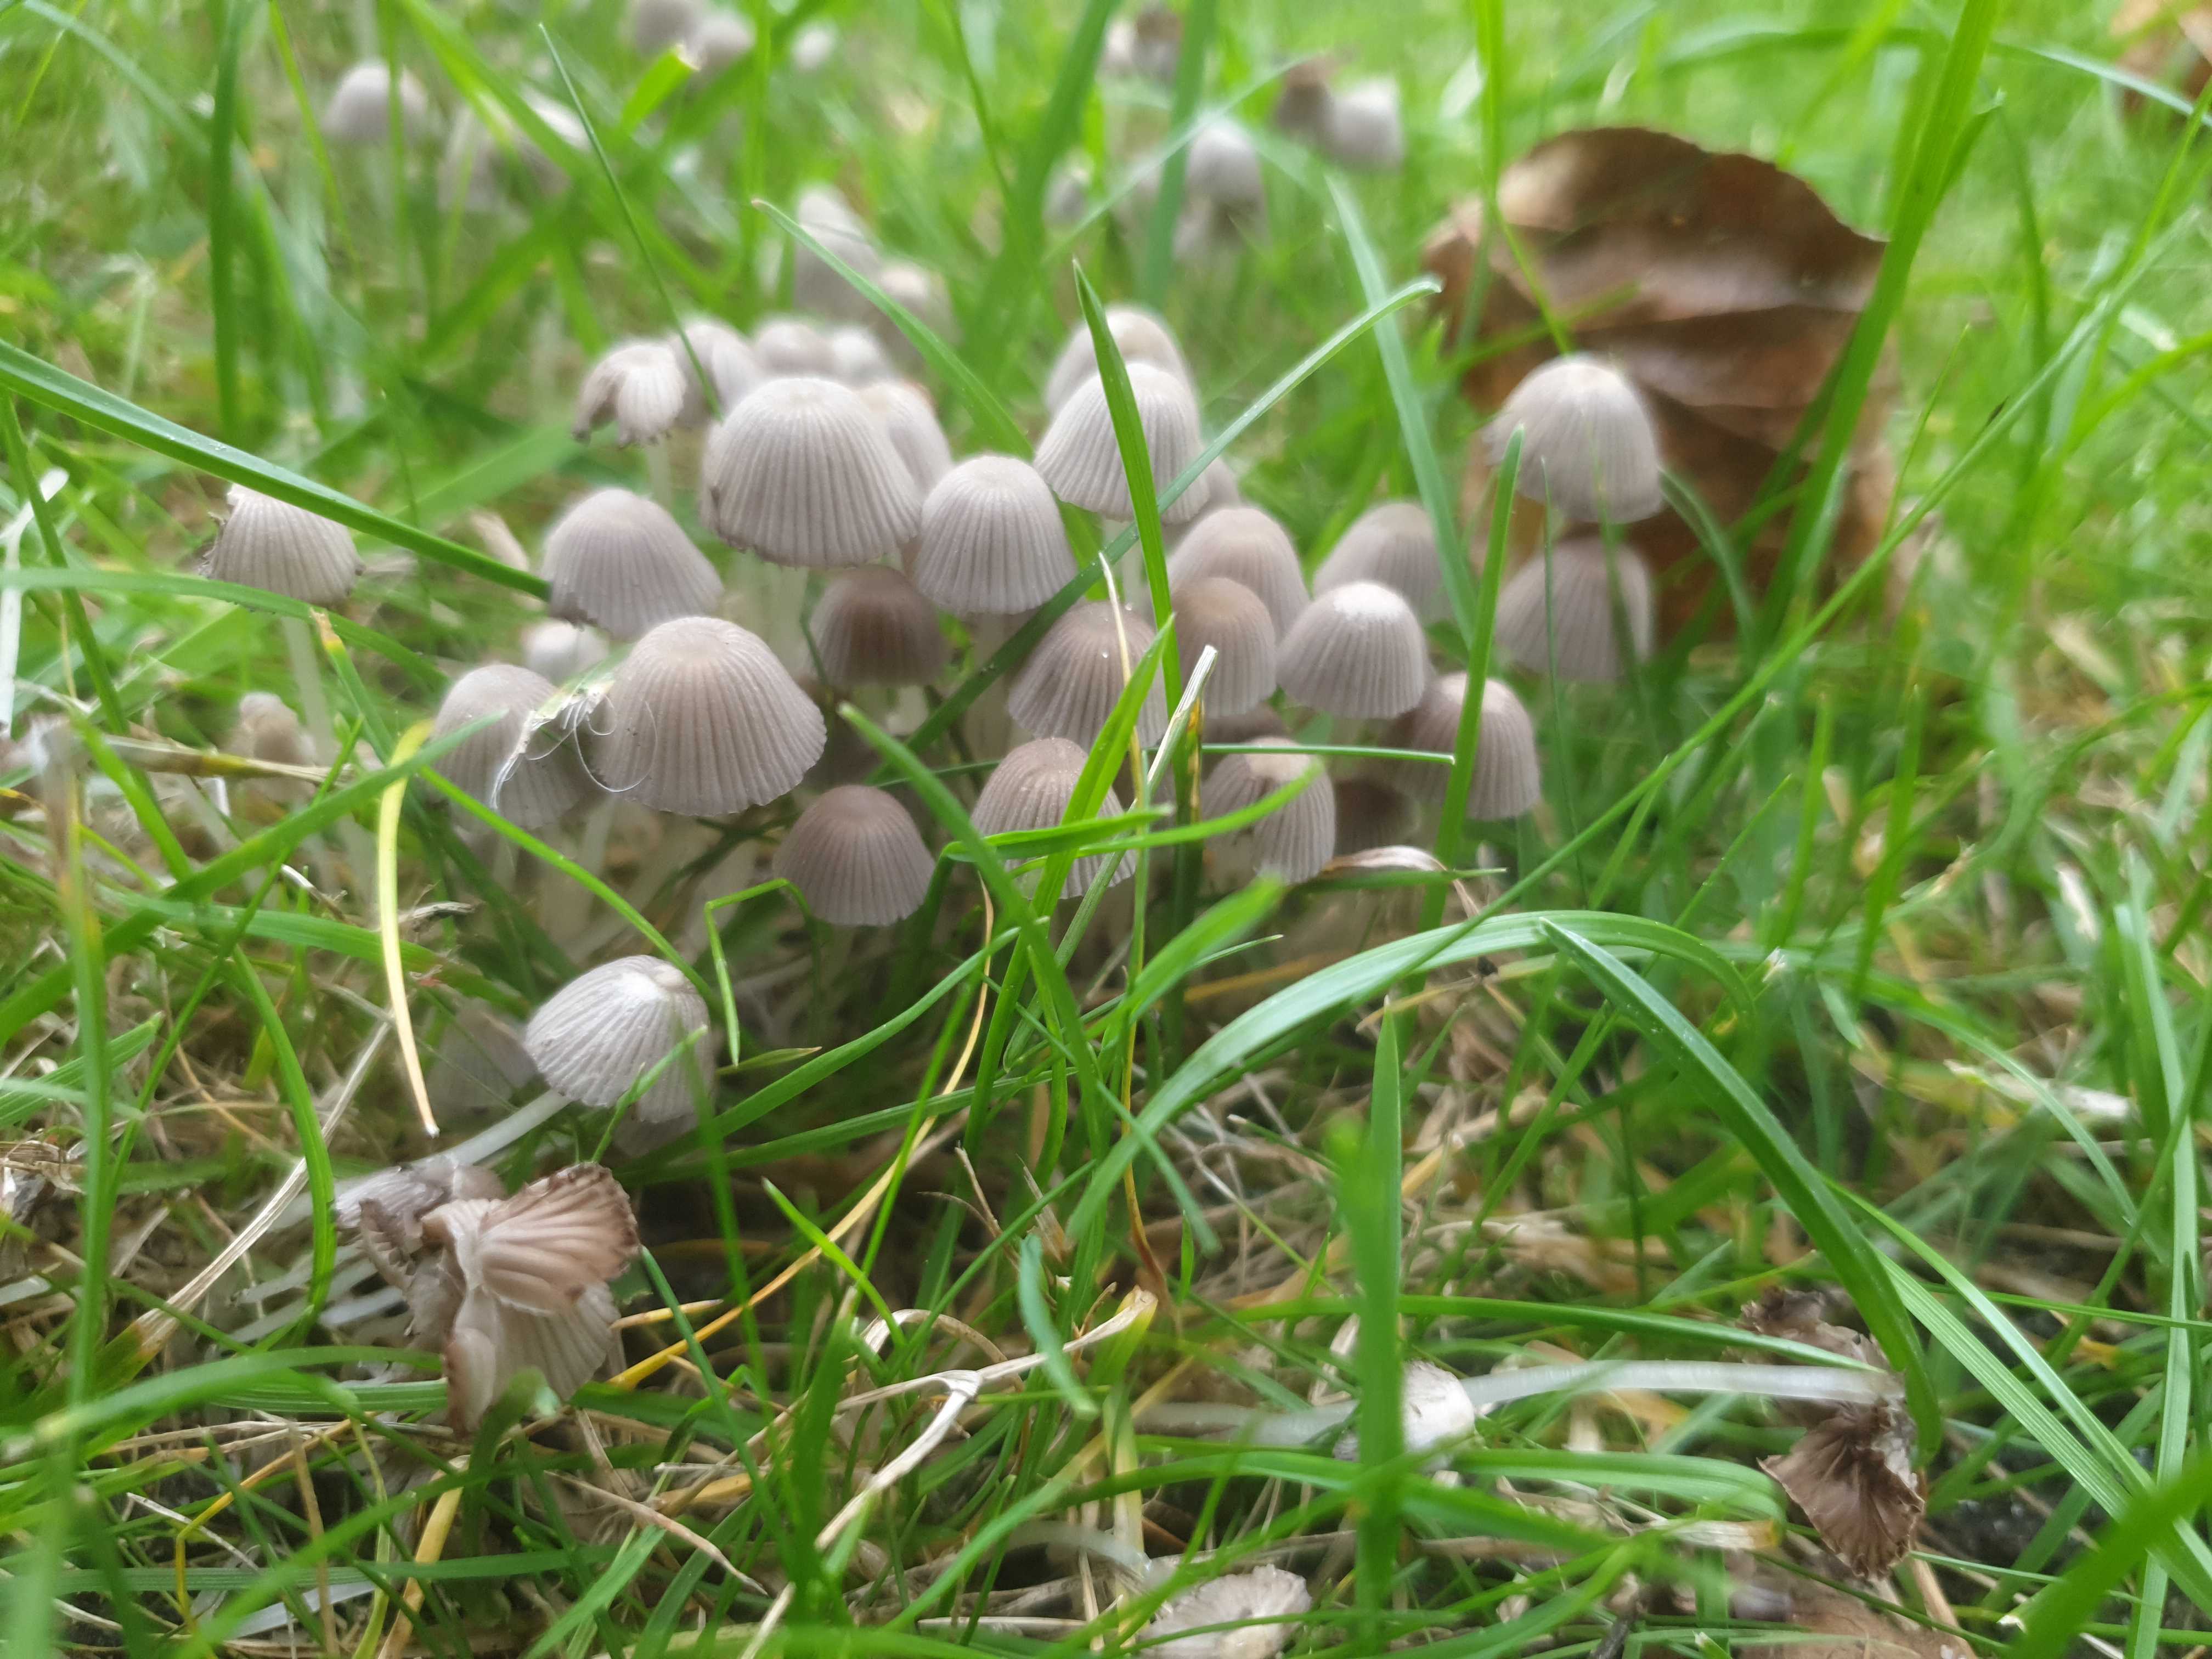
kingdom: Fungi
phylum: Basidiomycota
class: Agaricomycetes
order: Agaricales
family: Psathyrellaceae
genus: Coprinellus
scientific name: Coprinellus disseminatus
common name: bredsået blækhat
